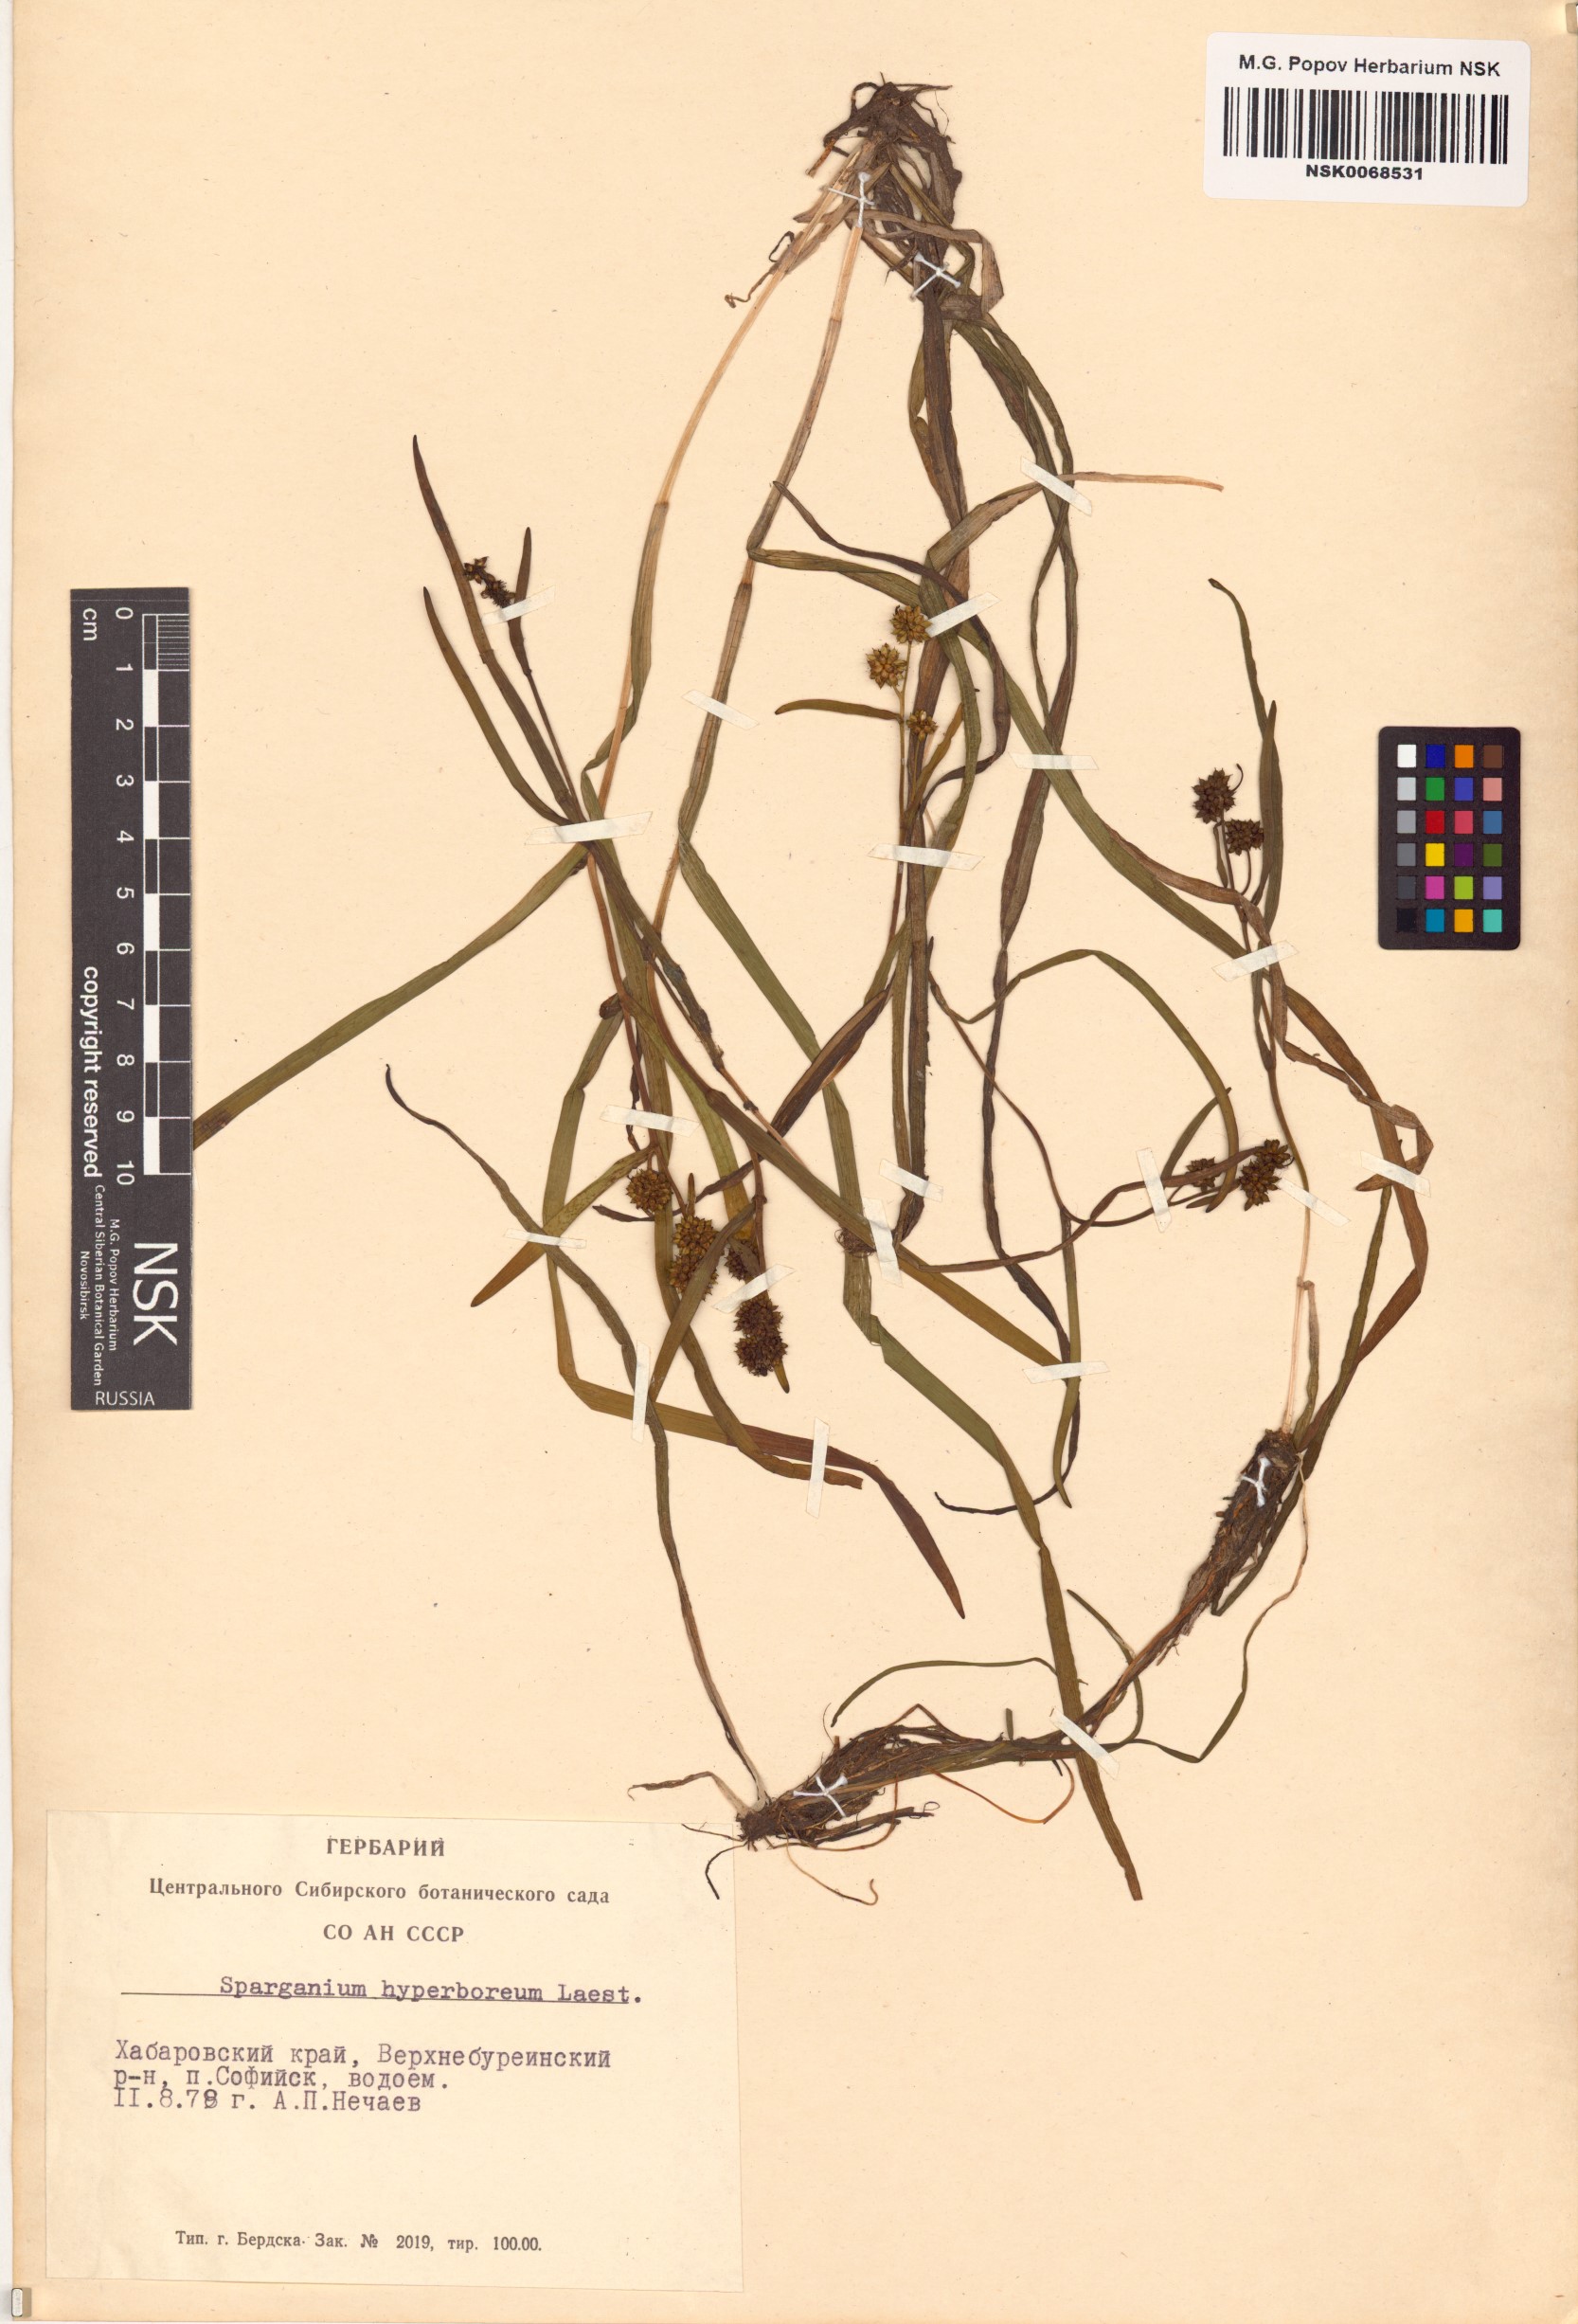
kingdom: Plantae
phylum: Tracheophyta
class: Liliopsida
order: Poales
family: Typhaceae
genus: Sparganium
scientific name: Sparganium hyperboreum
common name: Arctic burreed
